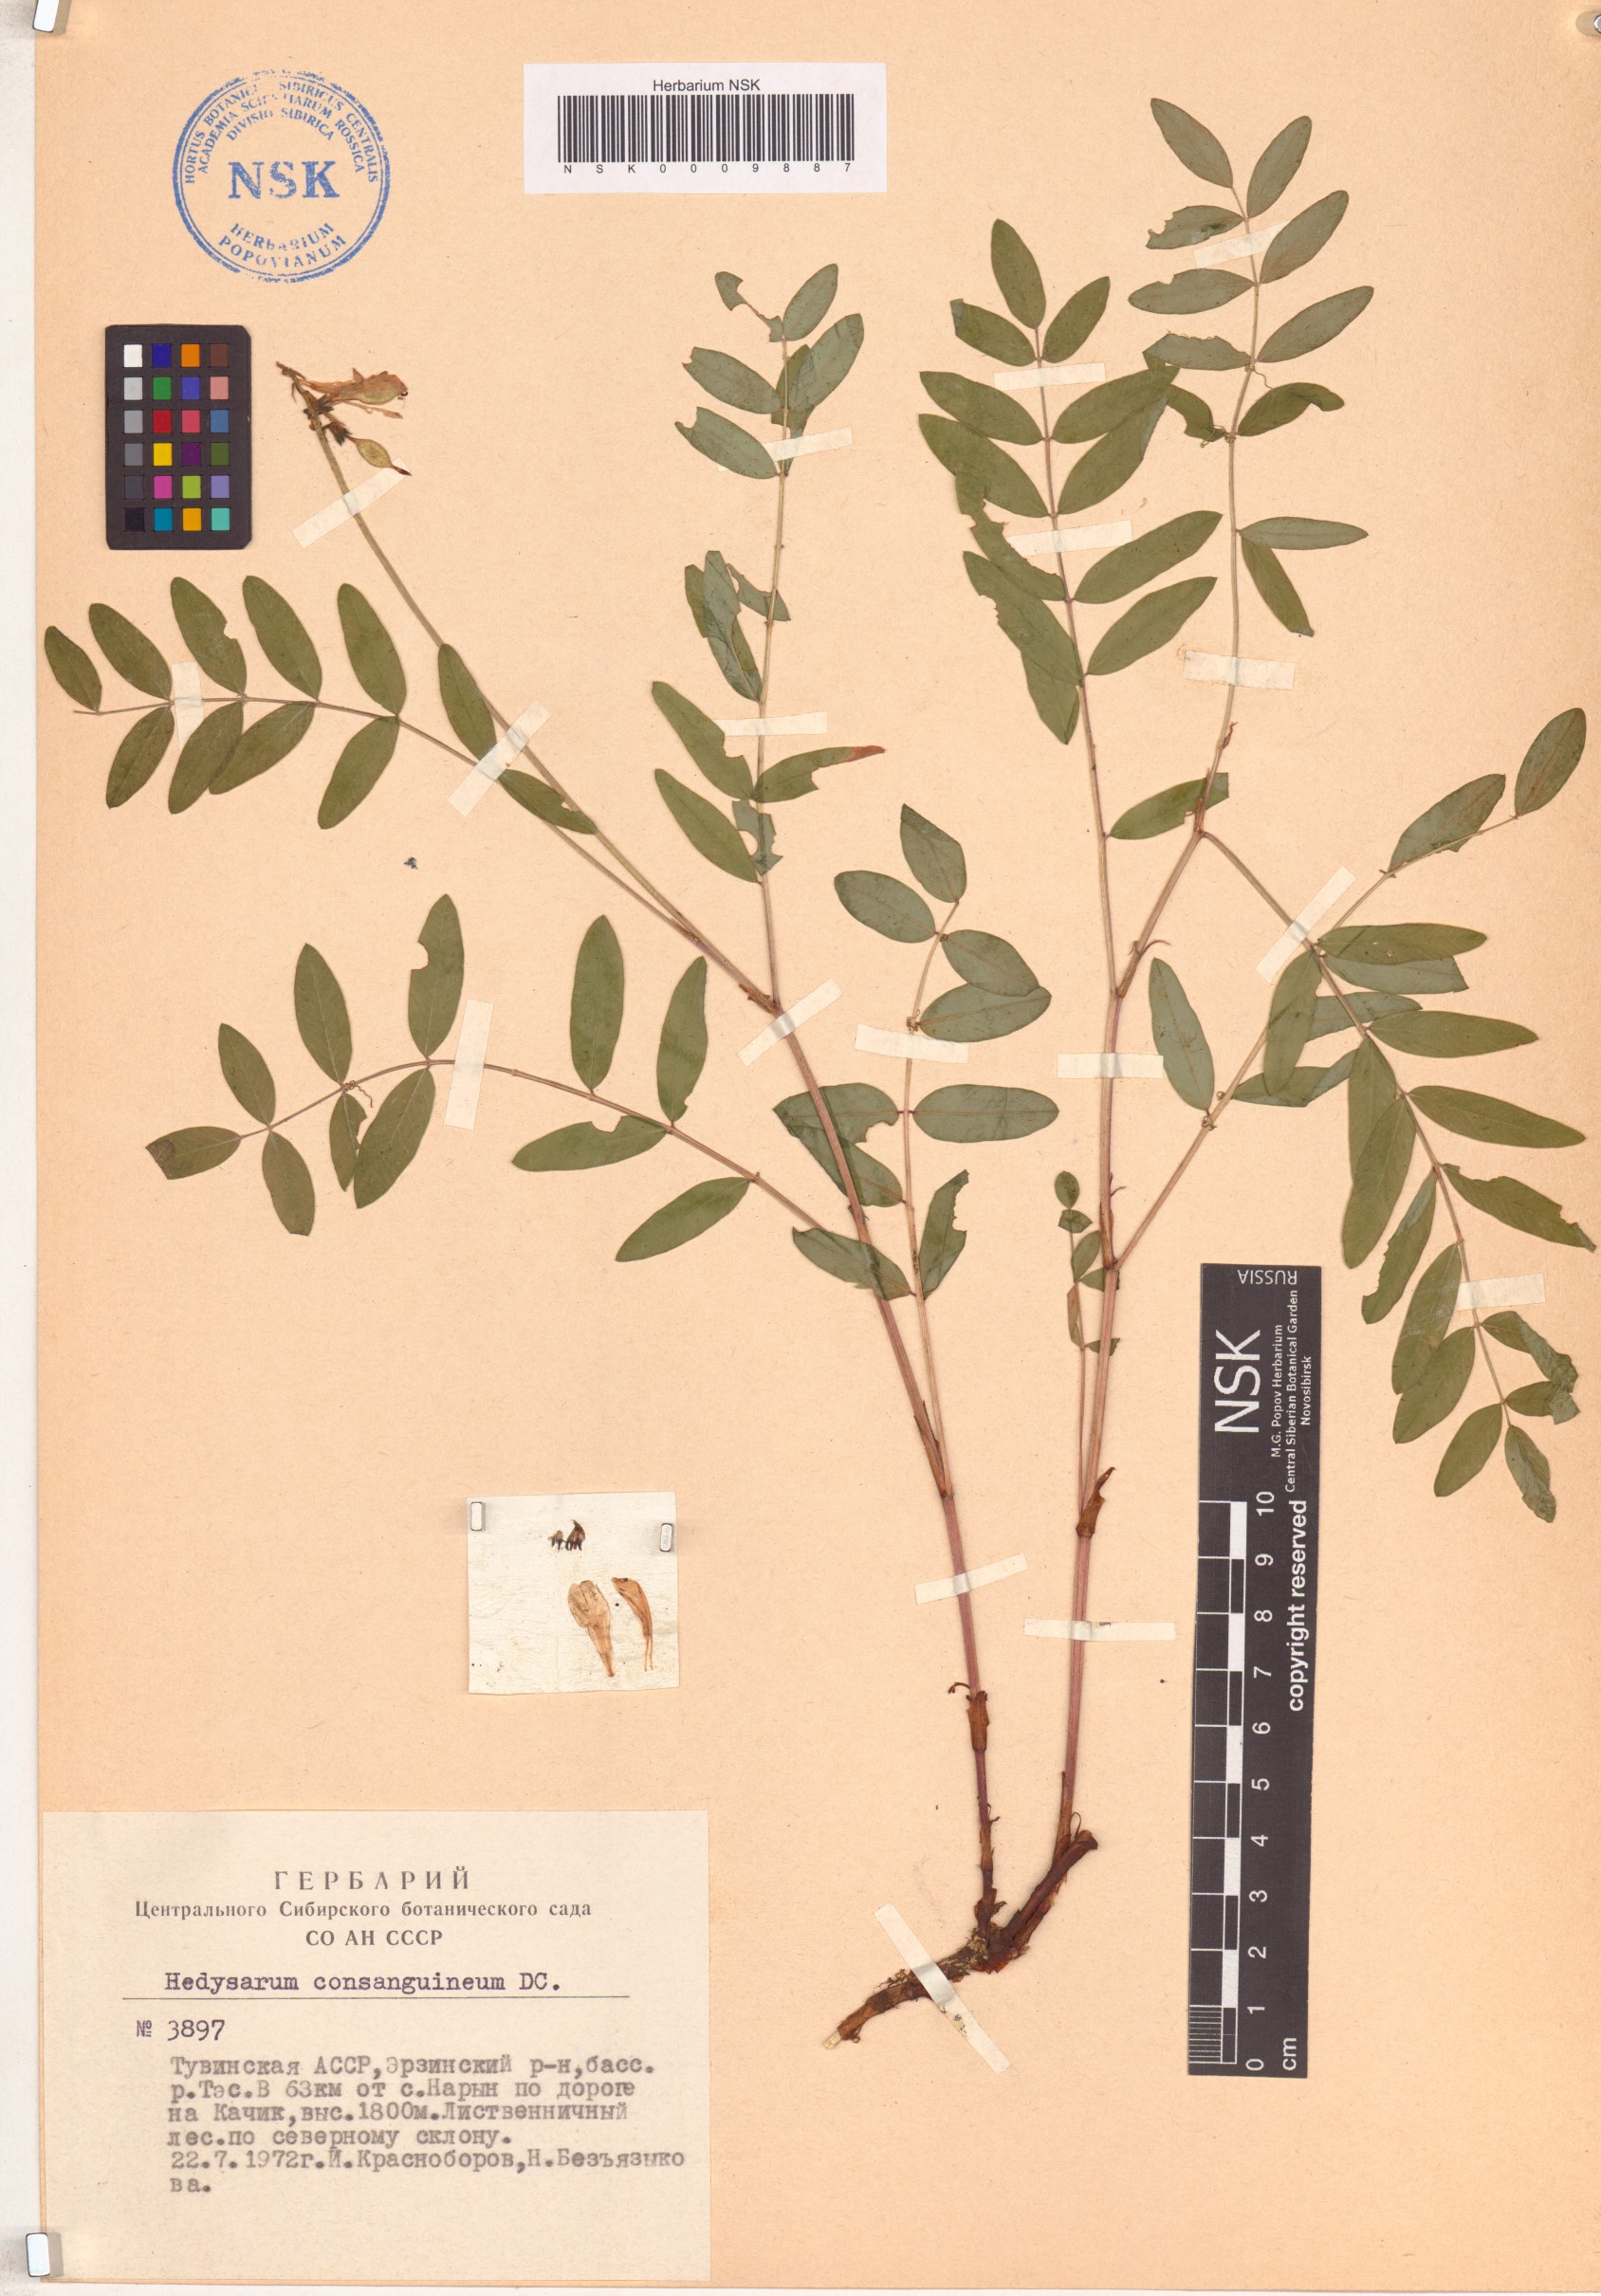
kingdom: Plantae
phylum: Tracheophyta
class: Magnoliopsida
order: Fabales
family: Fabaceae
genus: Hedysarum
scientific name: Hedysarum consanguineum
